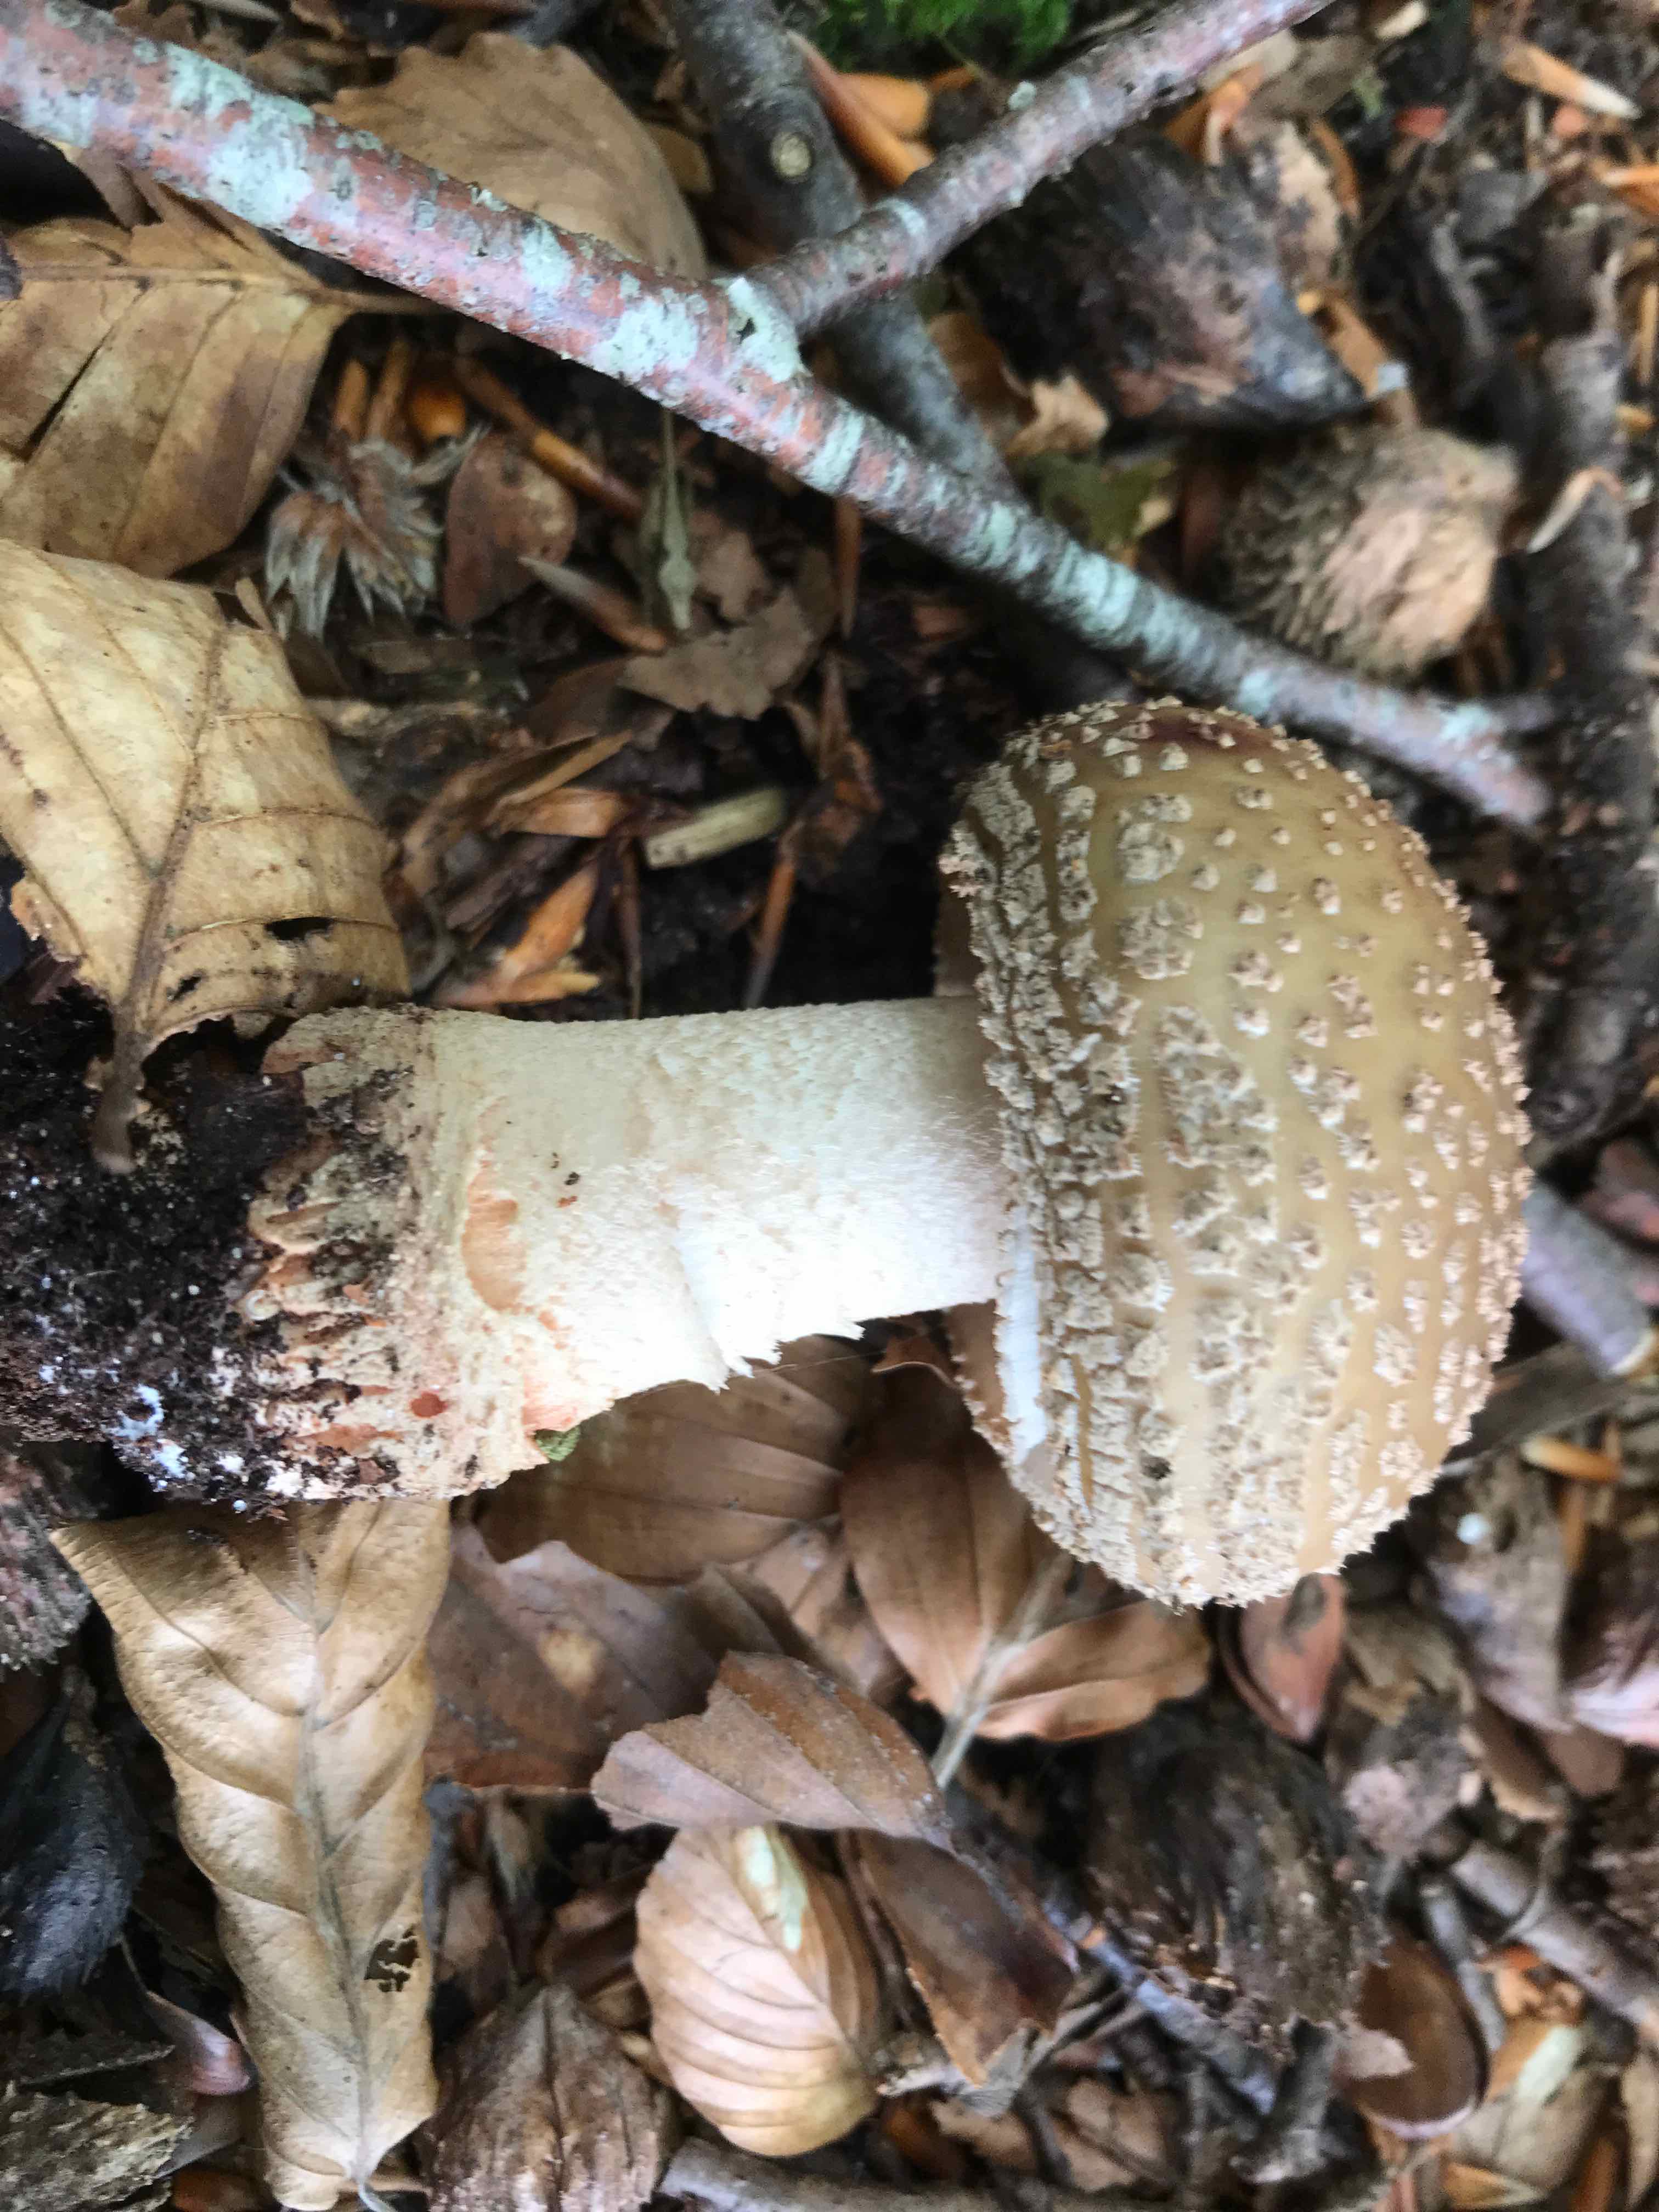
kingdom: Fungi
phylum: Basidiomycota
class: Agaricomycetes
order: Agaricales
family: Amanitaceae
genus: Amanita
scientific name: Amanita rubescens
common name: rødmende fluesvamp
